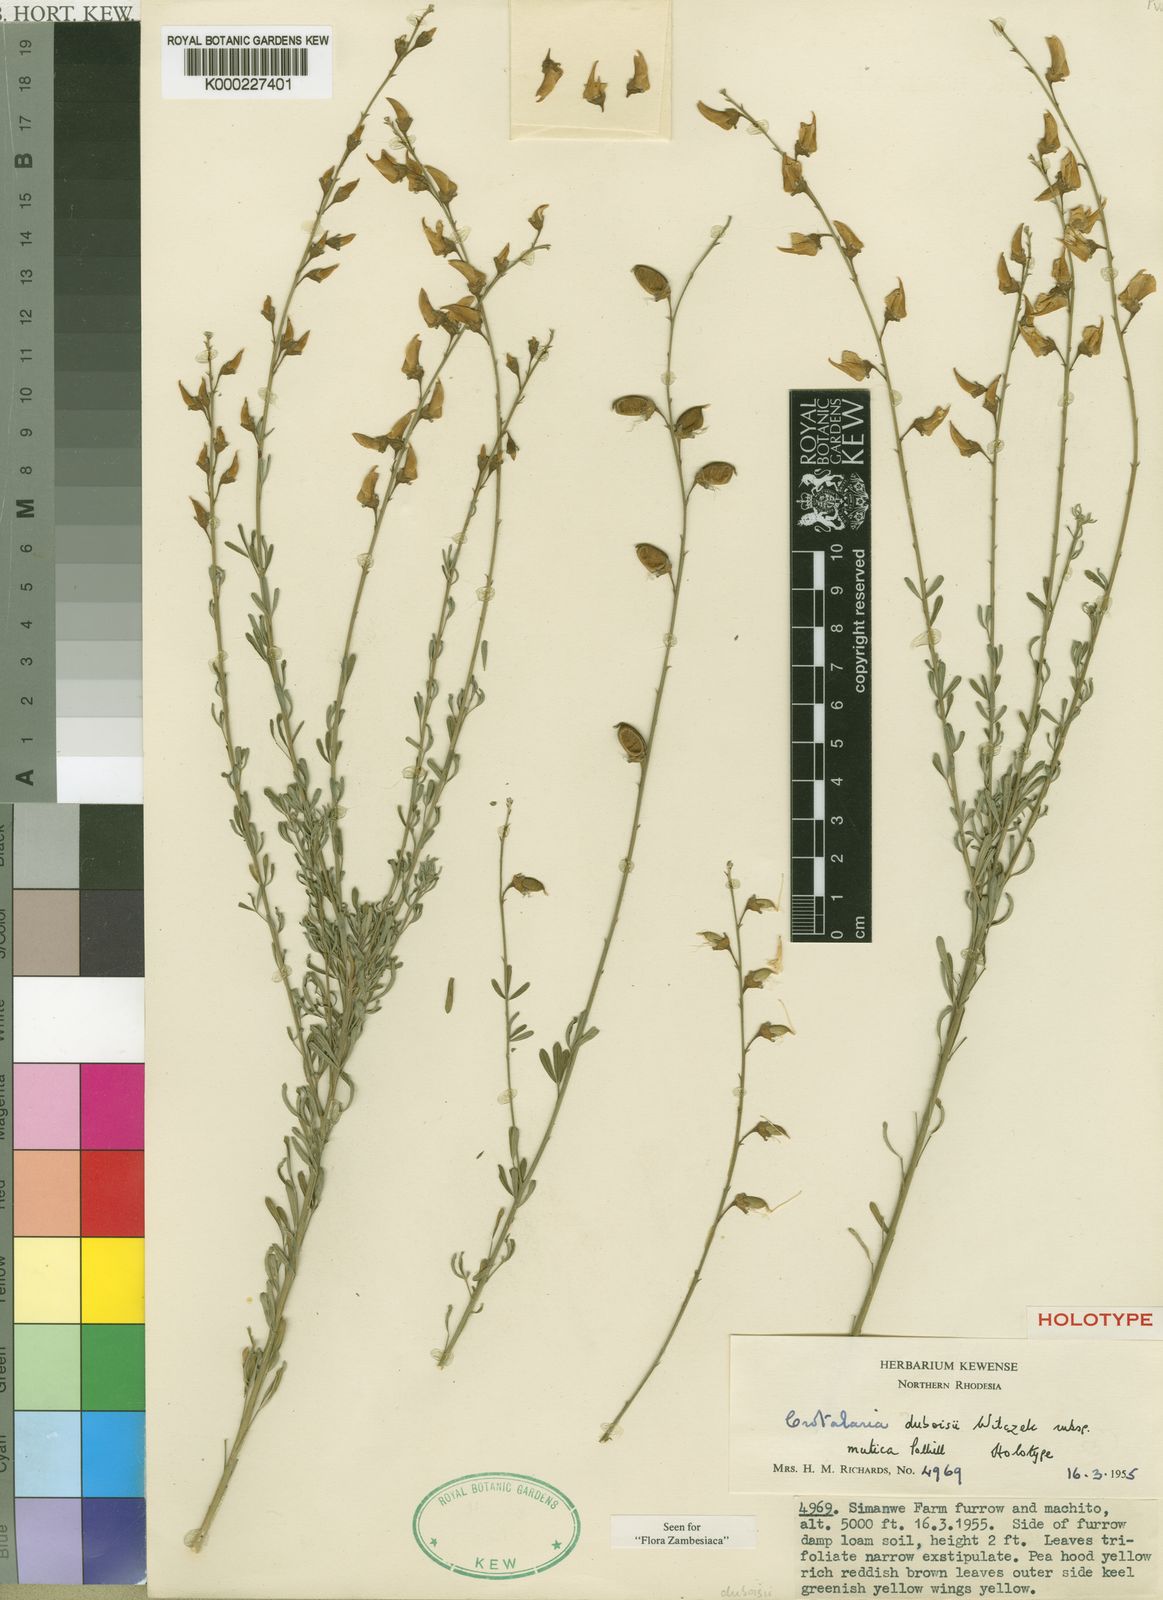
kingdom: Plantae
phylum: Tracheophyta
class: Magnoliopsida
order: Fabales
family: Fabaceae
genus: Crotalaria
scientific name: Crotalaria duboisii
